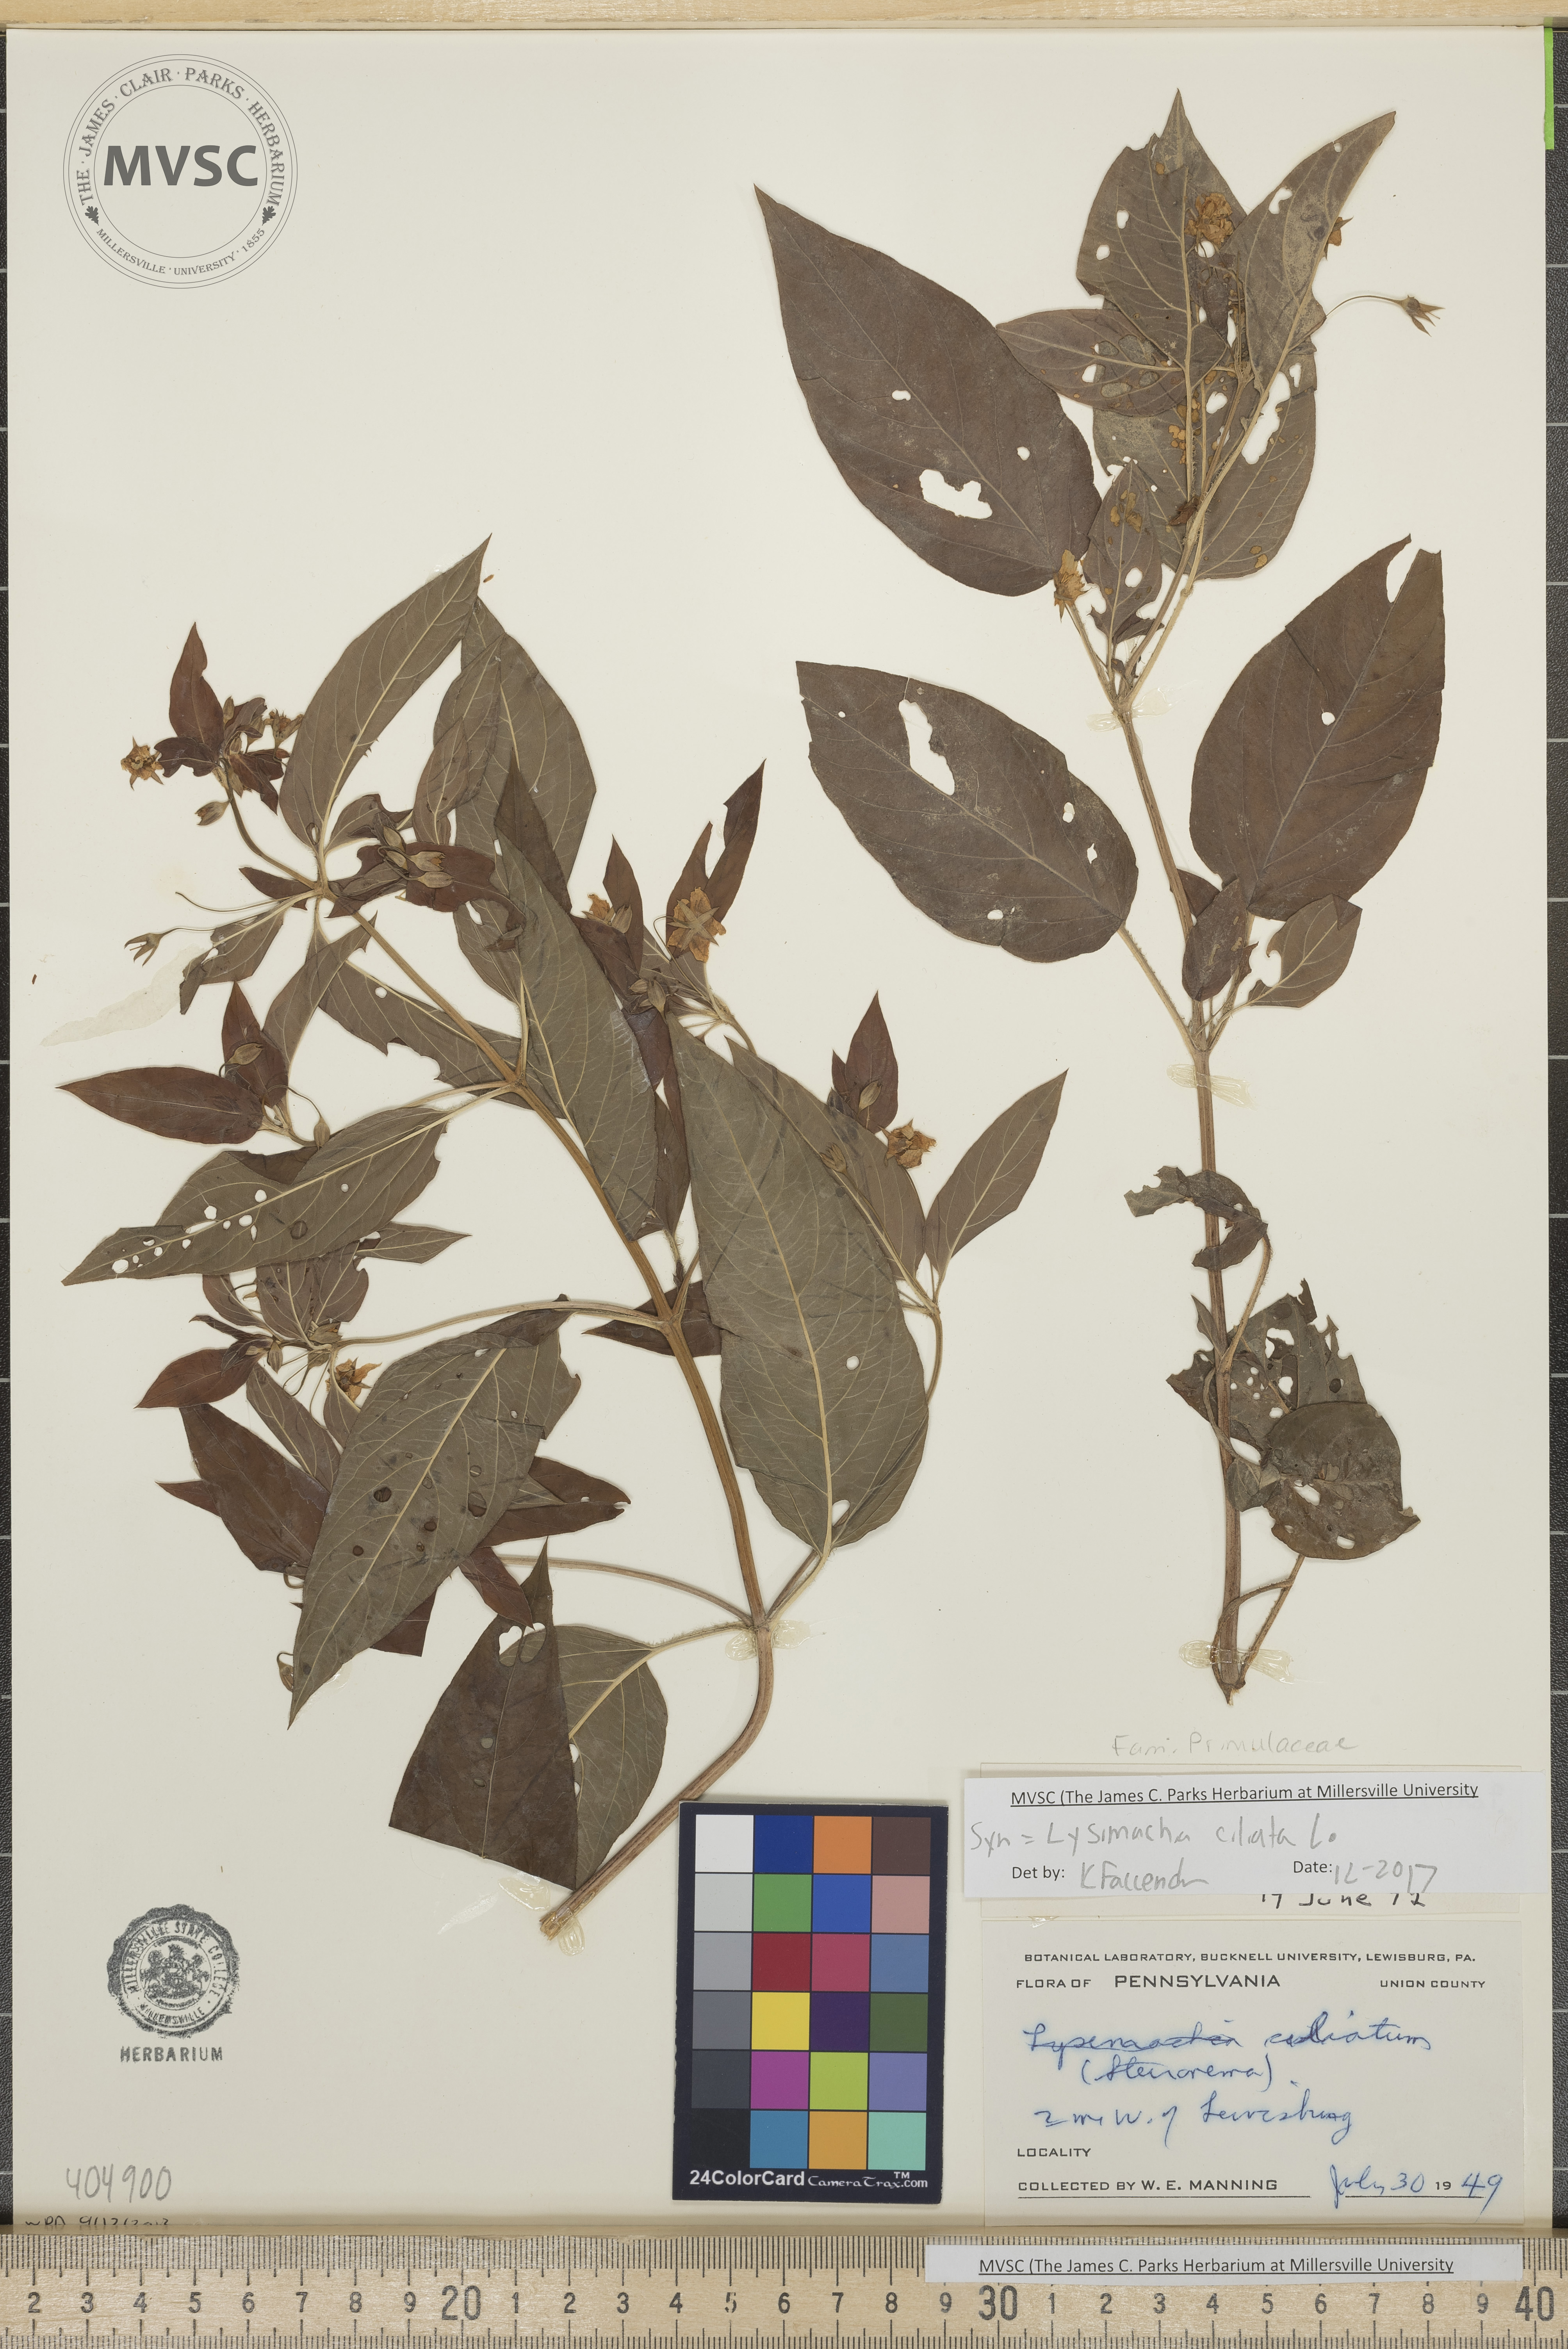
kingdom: Plantae
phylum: Tracheophyta
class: Magnoliopsida
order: Ericales
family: Primulaceae
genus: Lysimachia
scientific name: Lysimachia ciliata
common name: Fringed loosestrife
